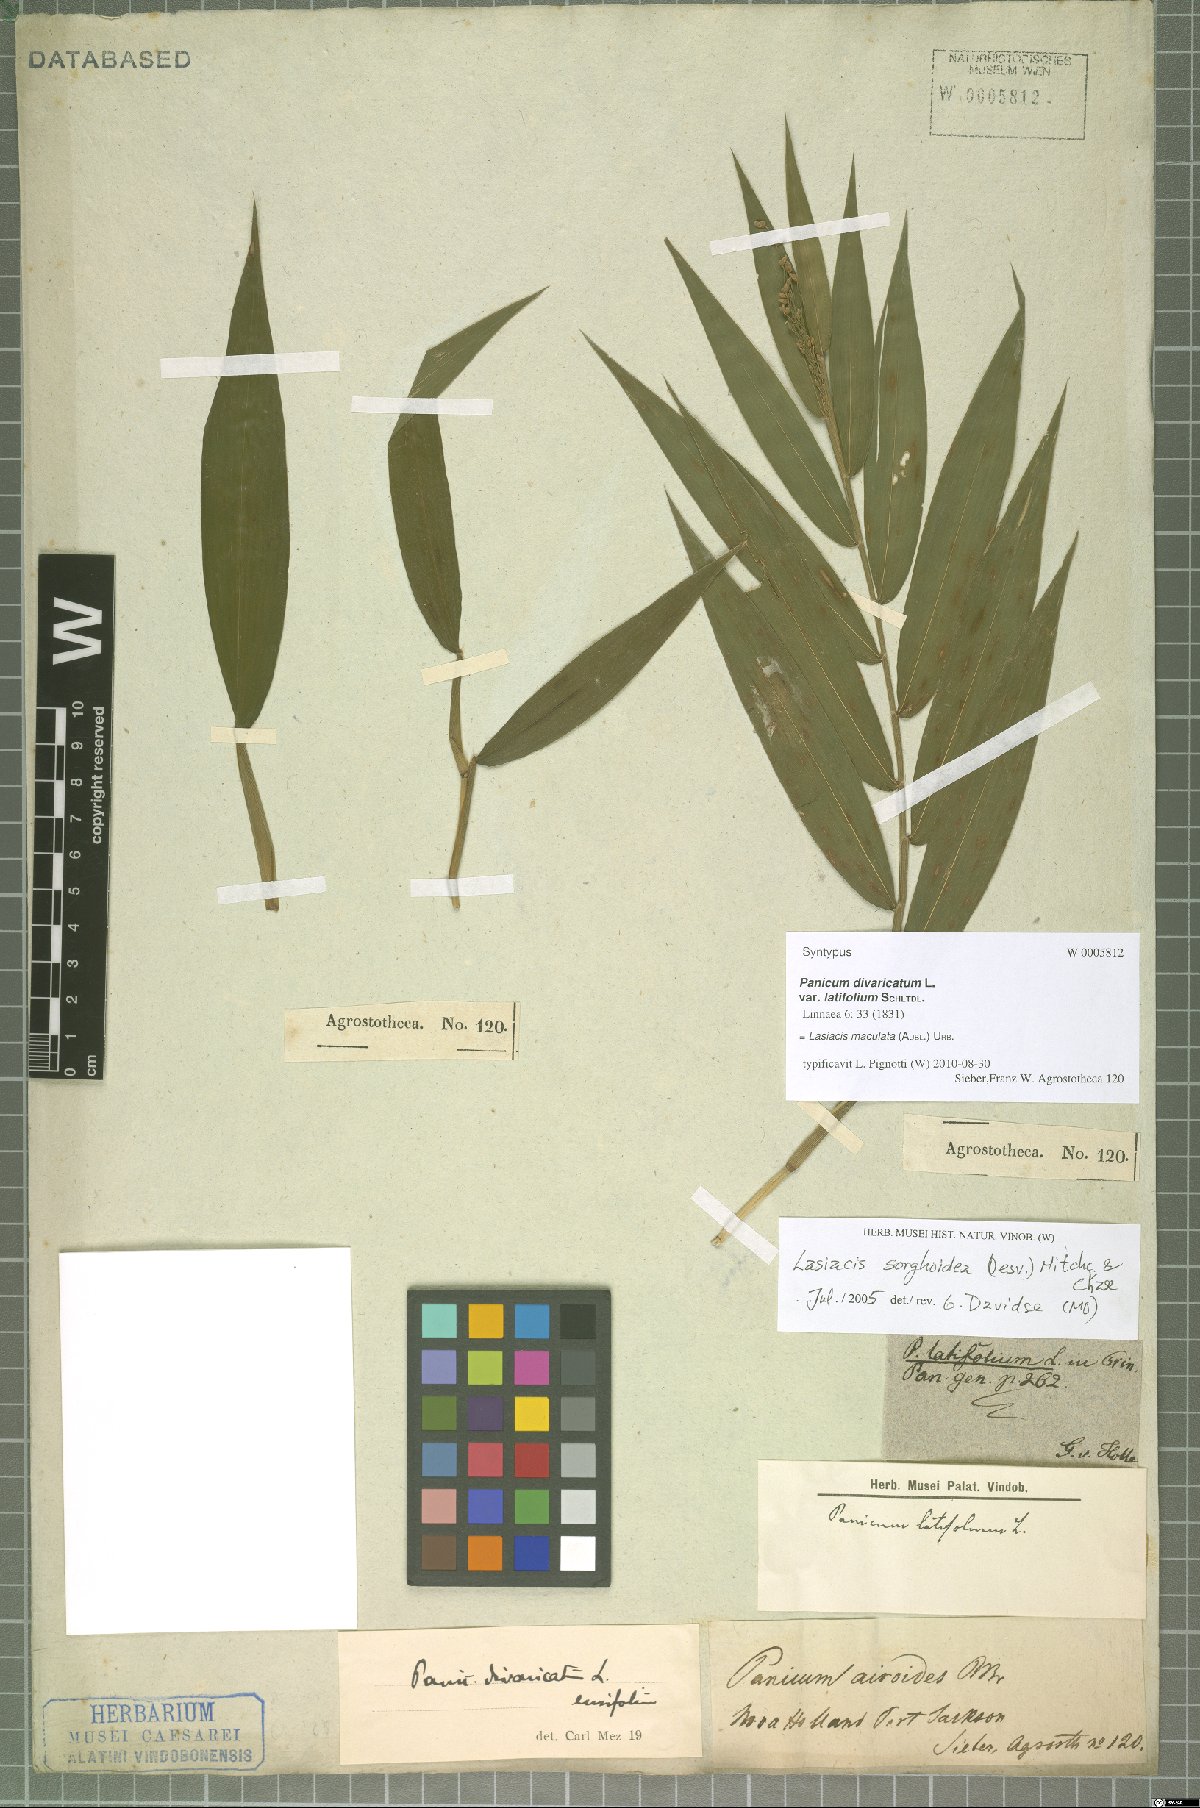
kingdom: Plantae
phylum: Tracheophyta
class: Liliopsida
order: Poales
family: Poaceae
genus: Lasiacis
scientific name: Lasiacis maculata
